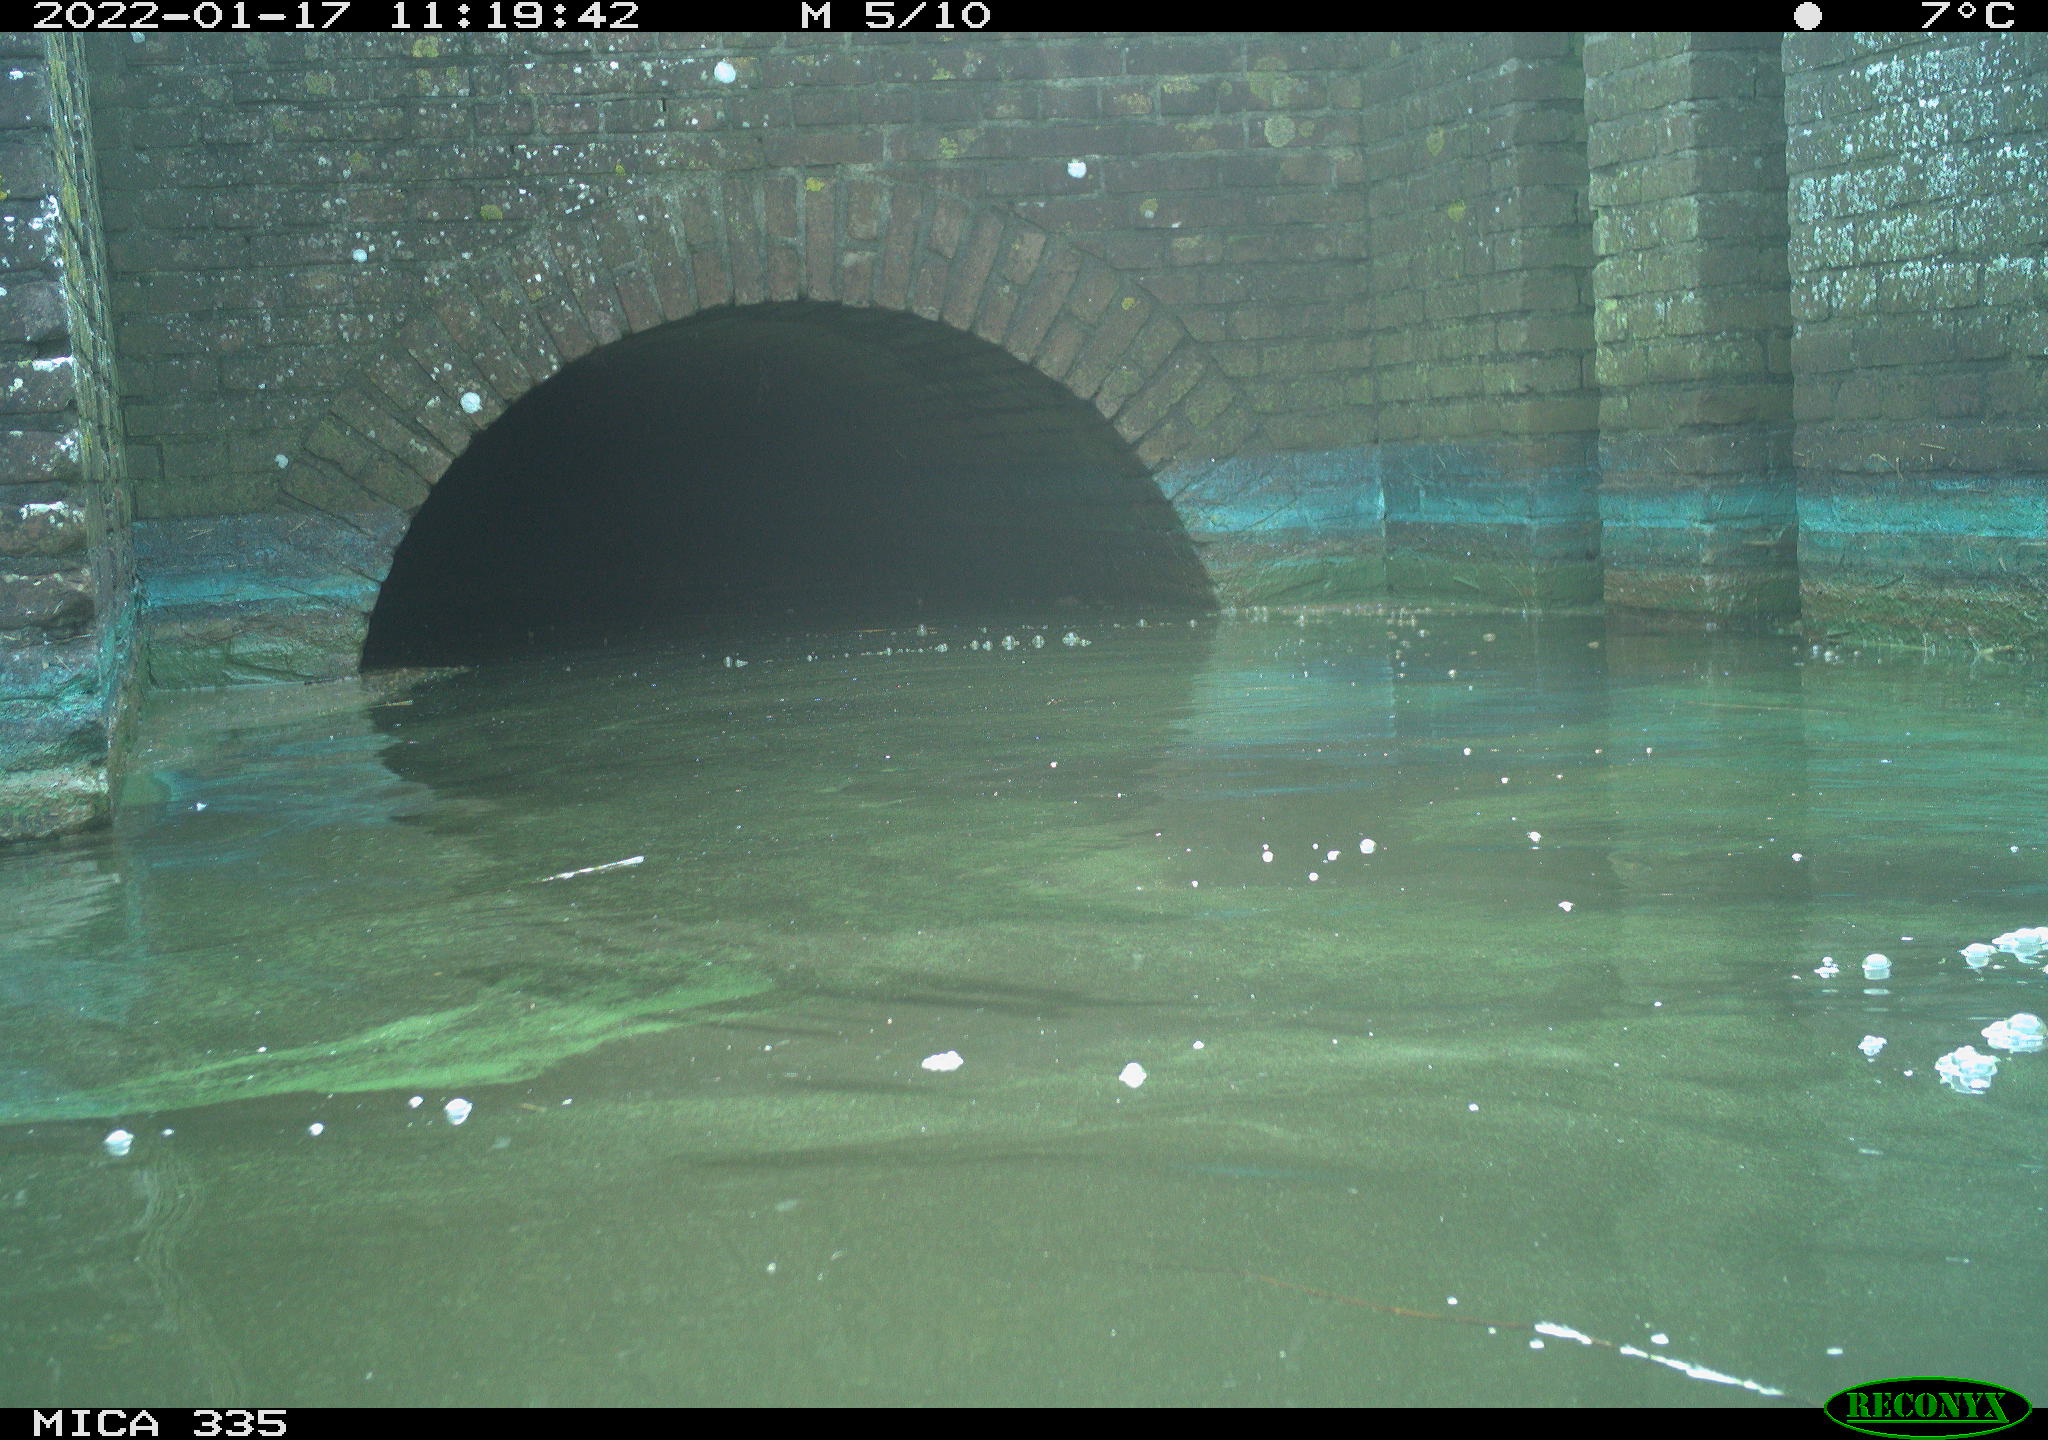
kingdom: Animalia
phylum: Chordata
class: Aves
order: Suliformes
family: Phalacrocoracidae
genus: Phalacrocorax
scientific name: Phalacrocorax carbo
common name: Great cormorant
